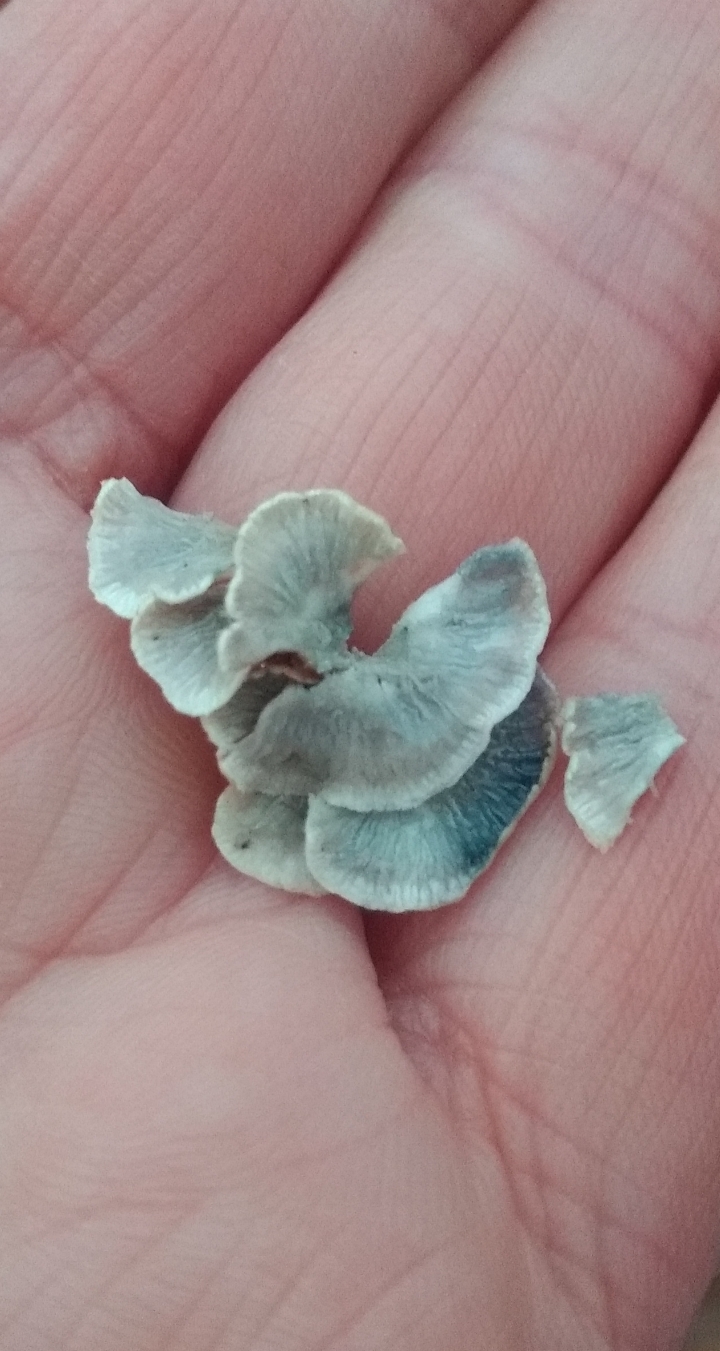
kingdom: Fungi
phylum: Basidiomycota
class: Agaricomycetes
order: Amylocorticiales
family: Amylocorticiaceae
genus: Plicaturopsis
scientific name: Plicaturopsis crispa
